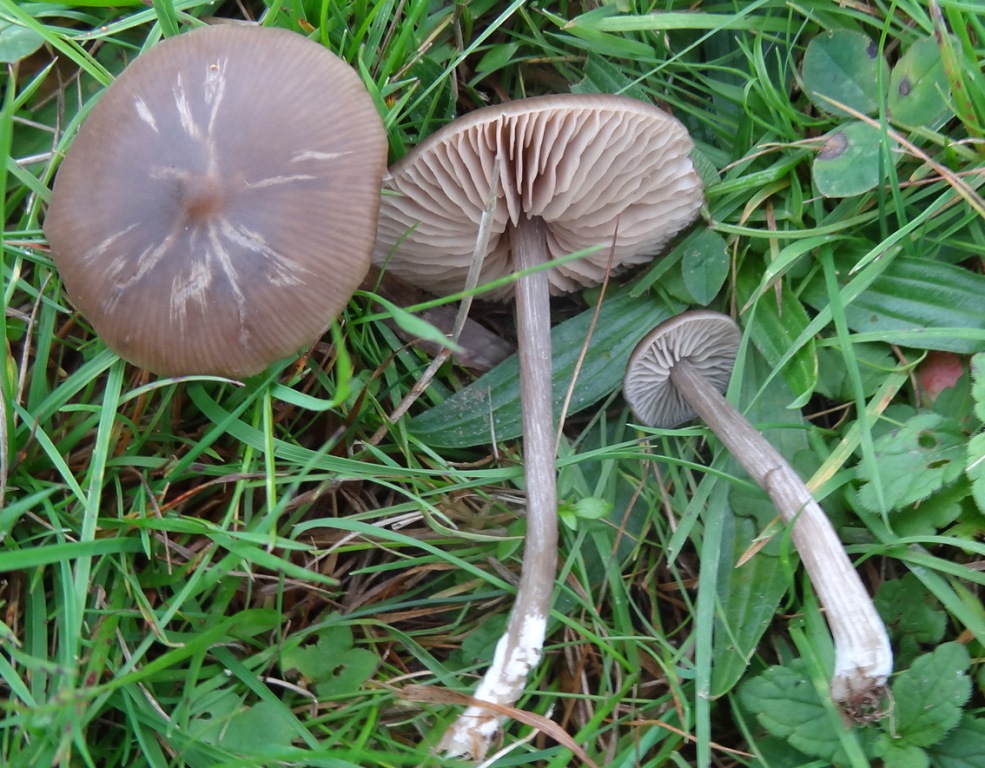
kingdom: Fungi
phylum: Basidiomycota
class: Agaricomycetes
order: Agaricales
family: Entolomataceae
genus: Entoloma
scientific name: Entoloma sericeum
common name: silkeglinsende rødblad
